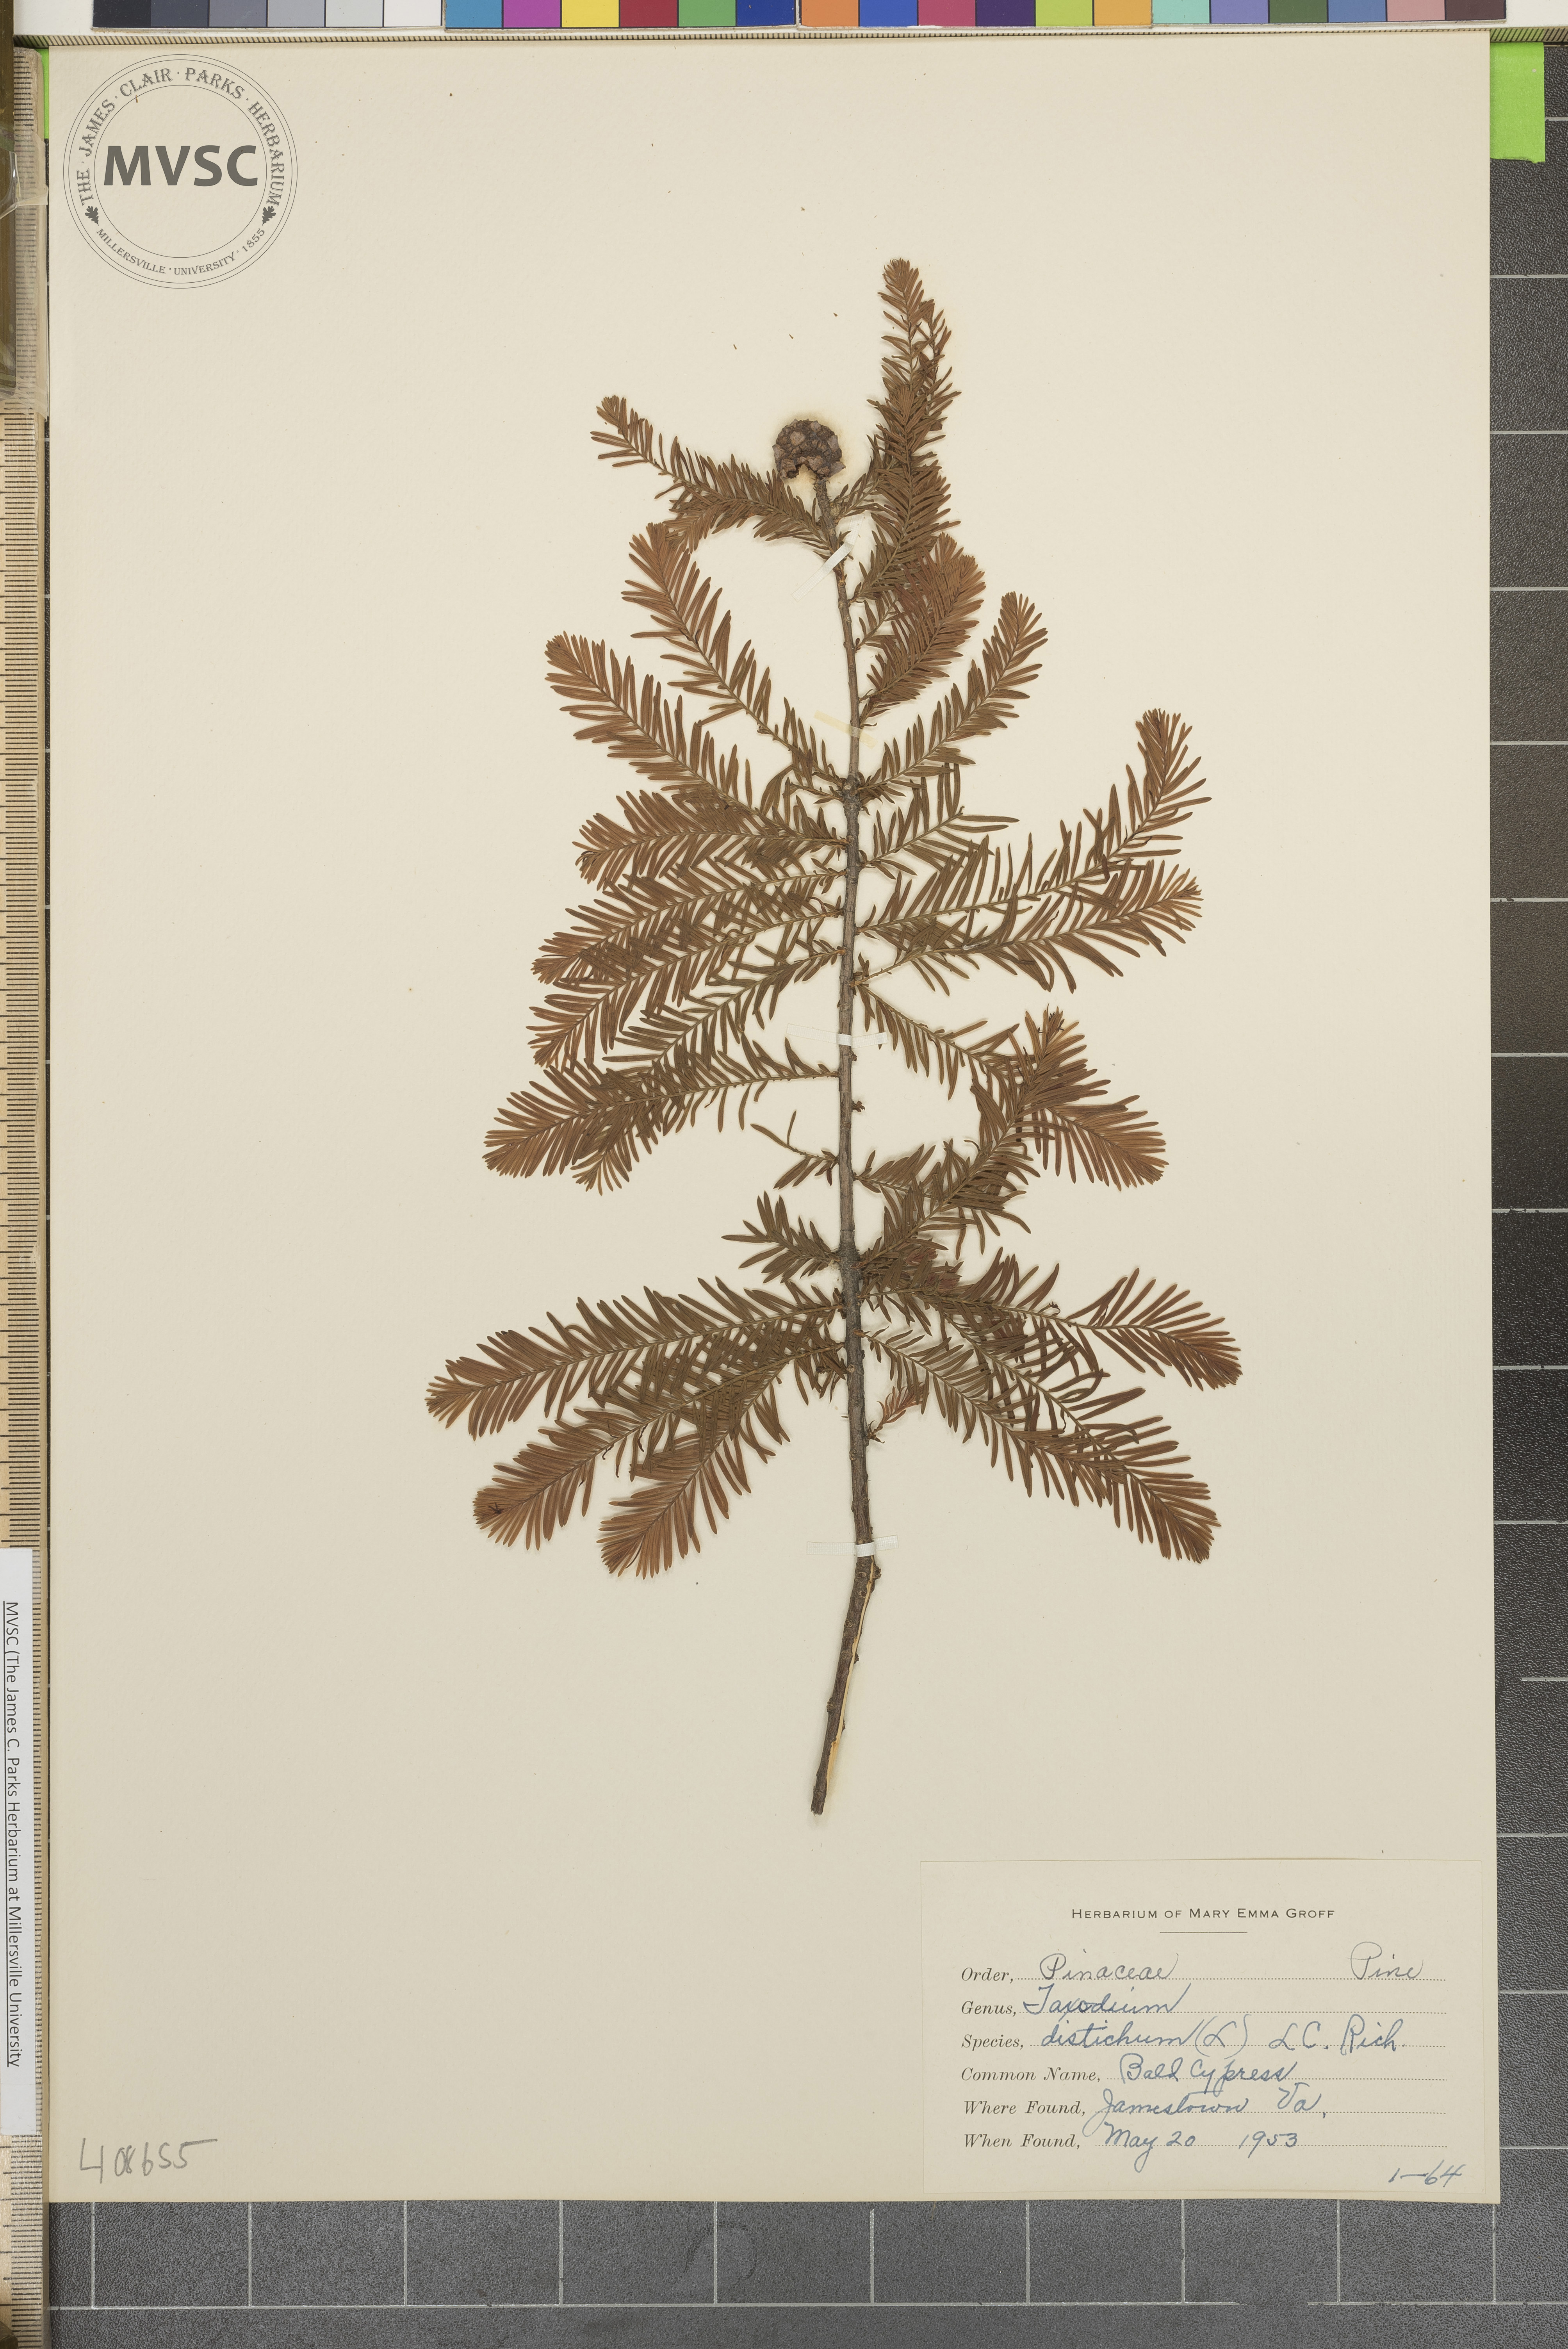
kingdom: Plantae
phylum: Tracheophyta
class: Pinopsida
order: Pinales
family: Cupressaceae
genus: Taxodium
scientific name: Taxodium distichum
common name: Bald cypress
